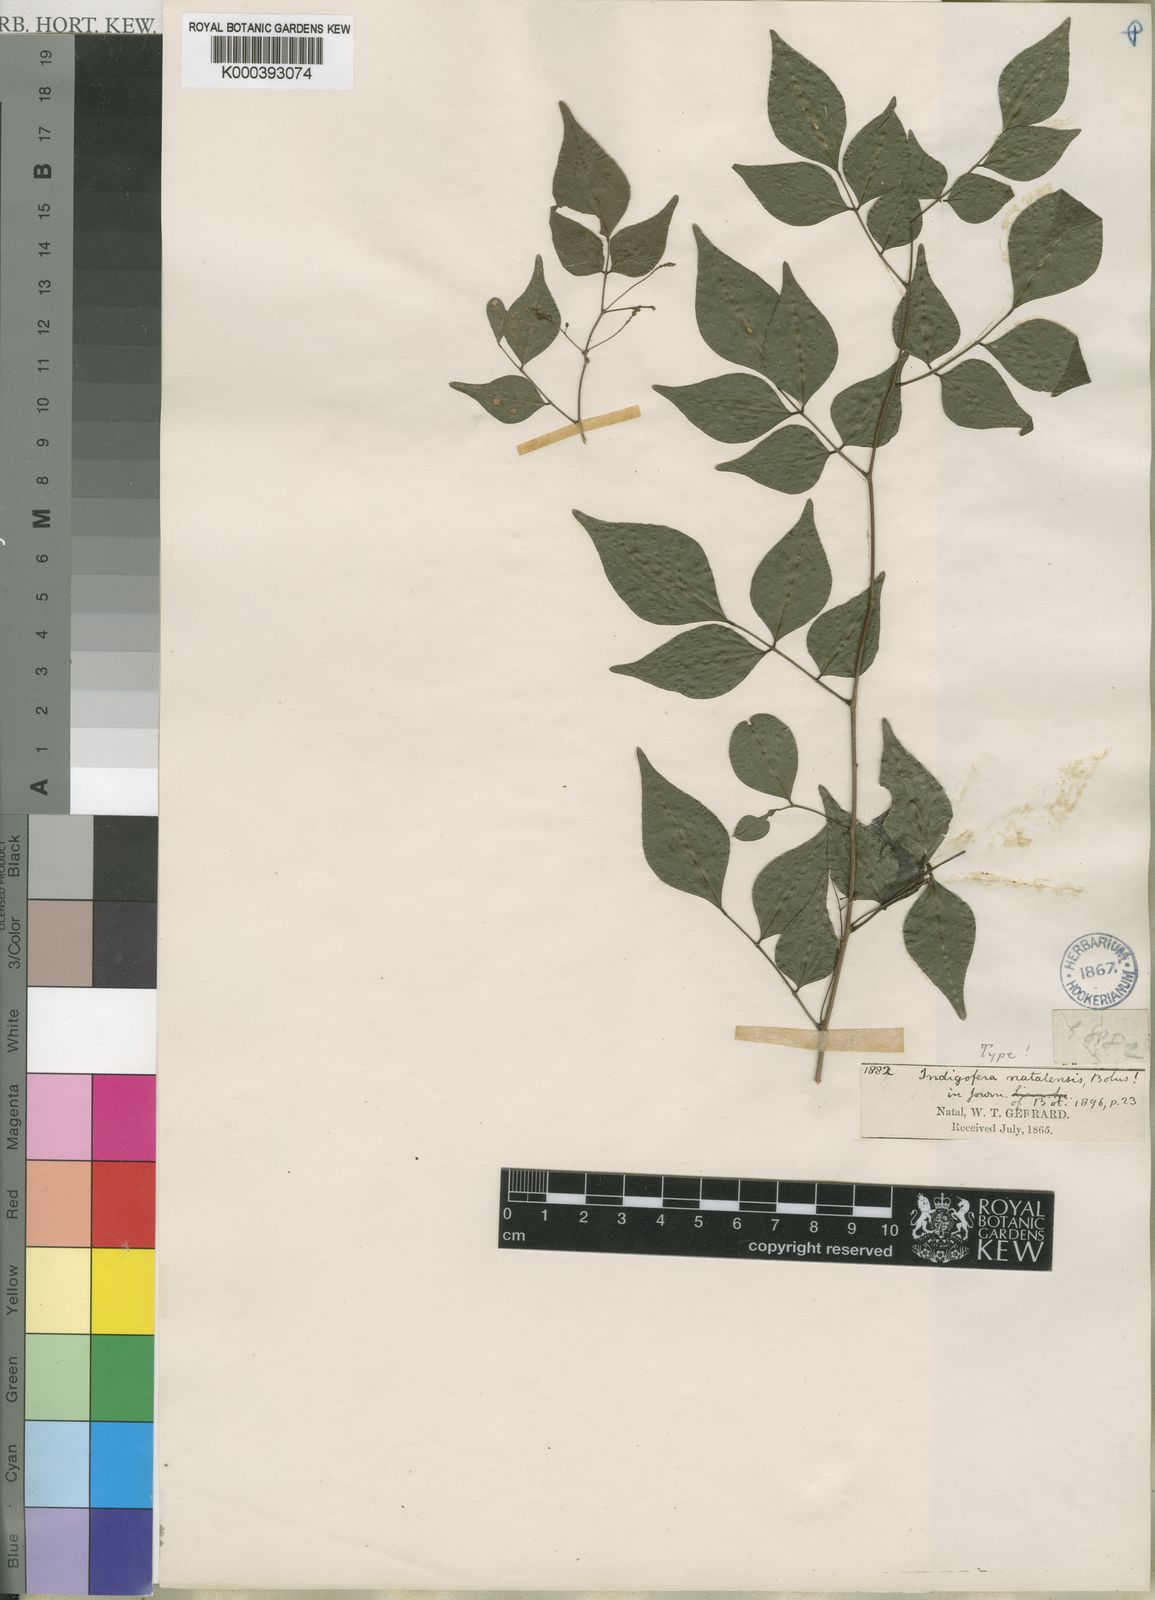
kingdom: Plantae
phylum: Tracheophyta
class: Magnoliopsida
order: Fabales
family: Fabaceae
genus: Indigofera
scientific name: Indigofera natalensis
